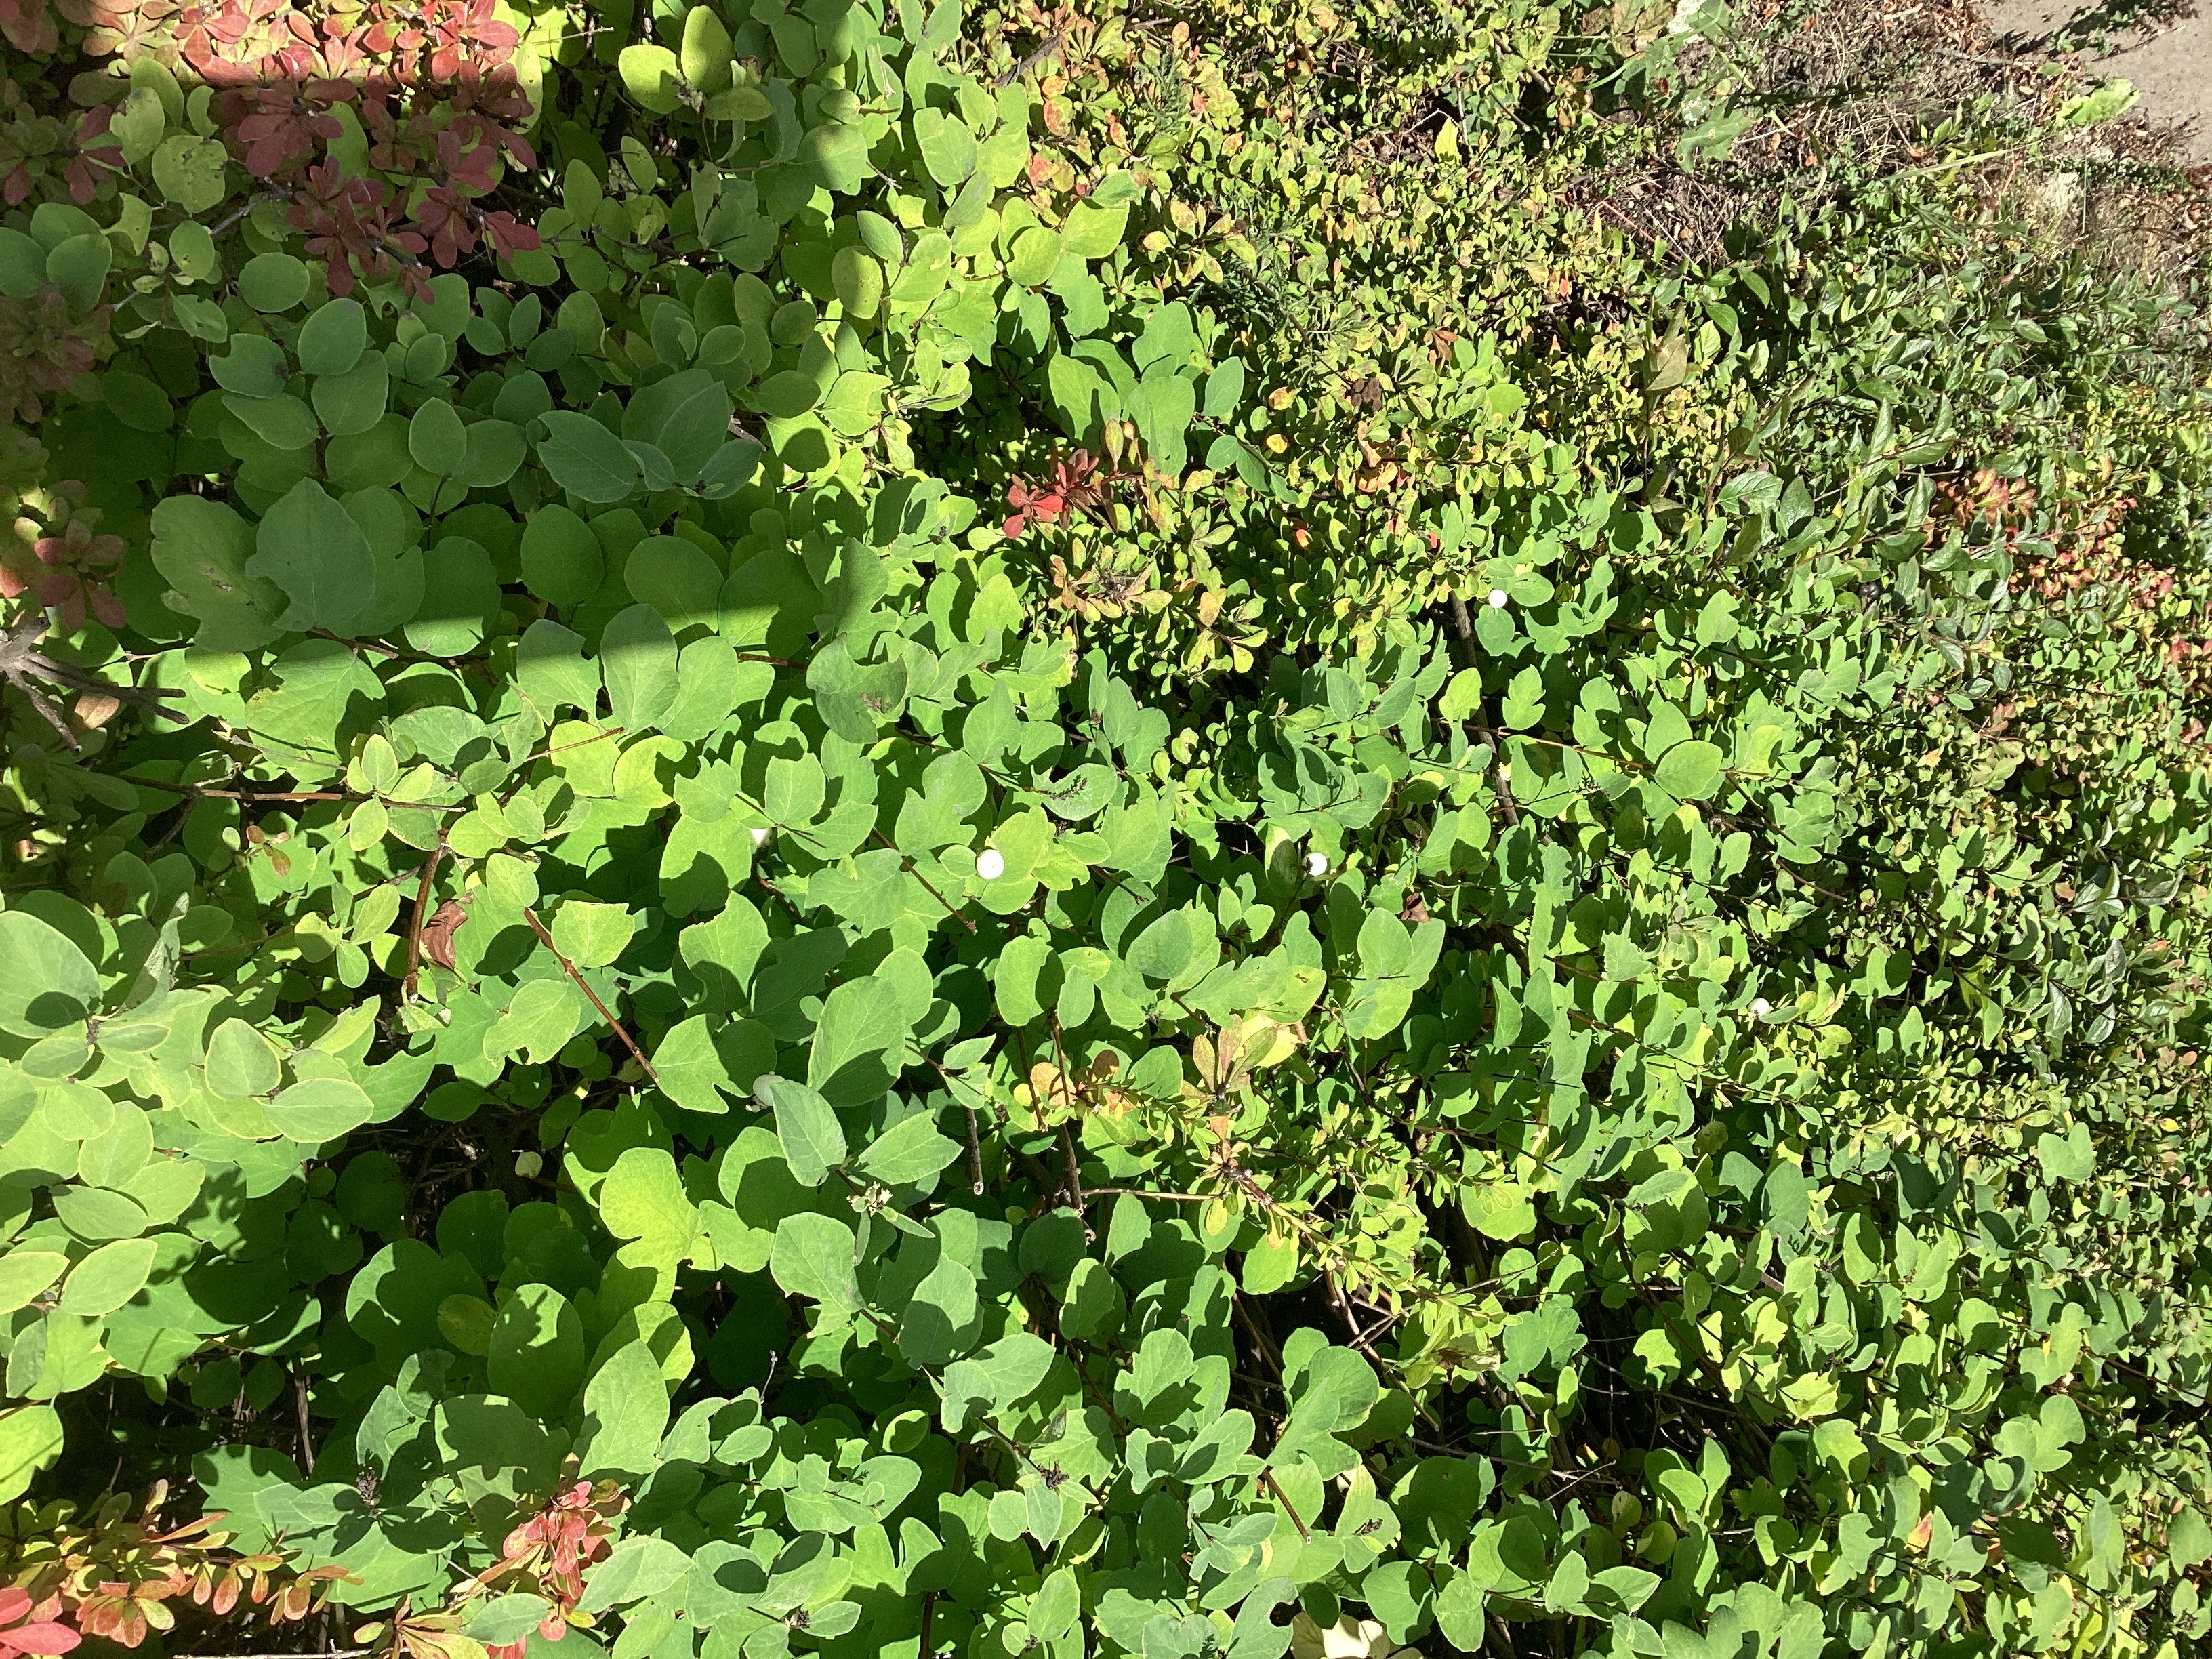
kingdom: Plantae
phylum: Tracheophyta
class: Magnoliopsida
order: Dipsacales
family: Caprifoliaceae
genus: Symphoricarpos
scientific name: Symphoricarpos albus
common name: snøbær
